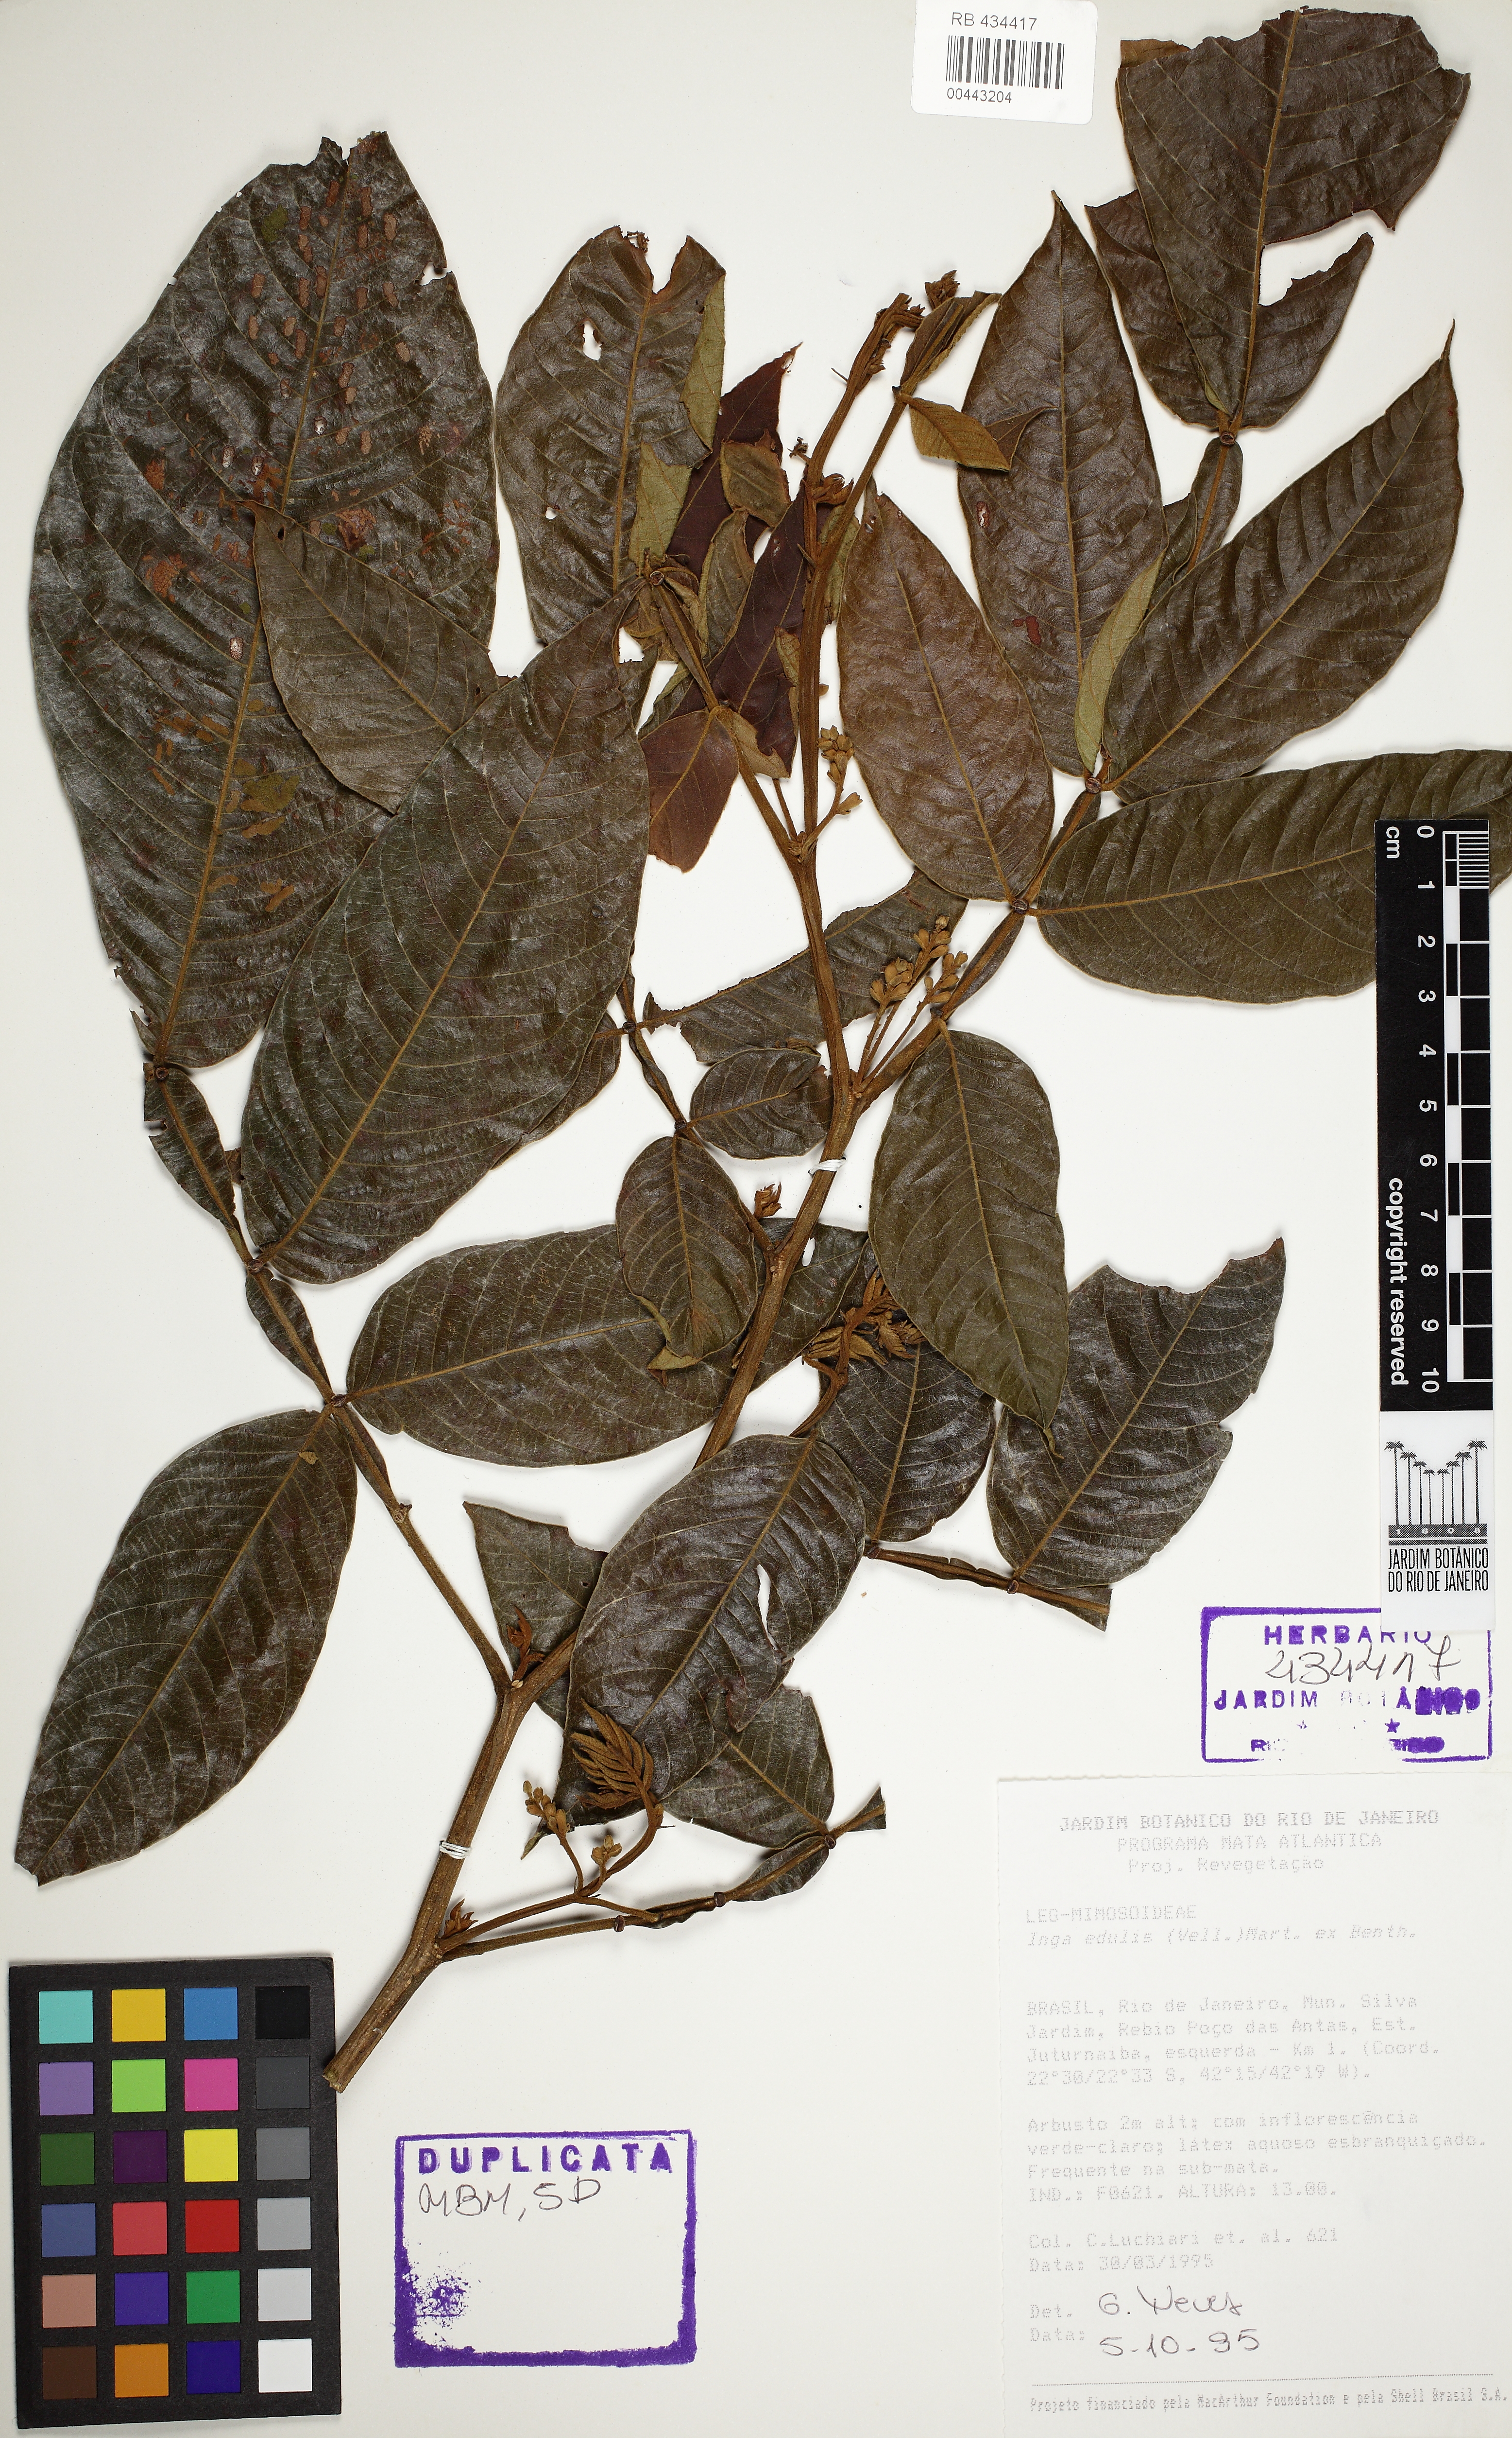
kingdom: Plantae
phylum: Tracheophyta
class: Magnoliopsida
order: Fabales
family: Fabaceae
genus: Inga
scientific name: Inga edulis
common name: Ice cream bean
